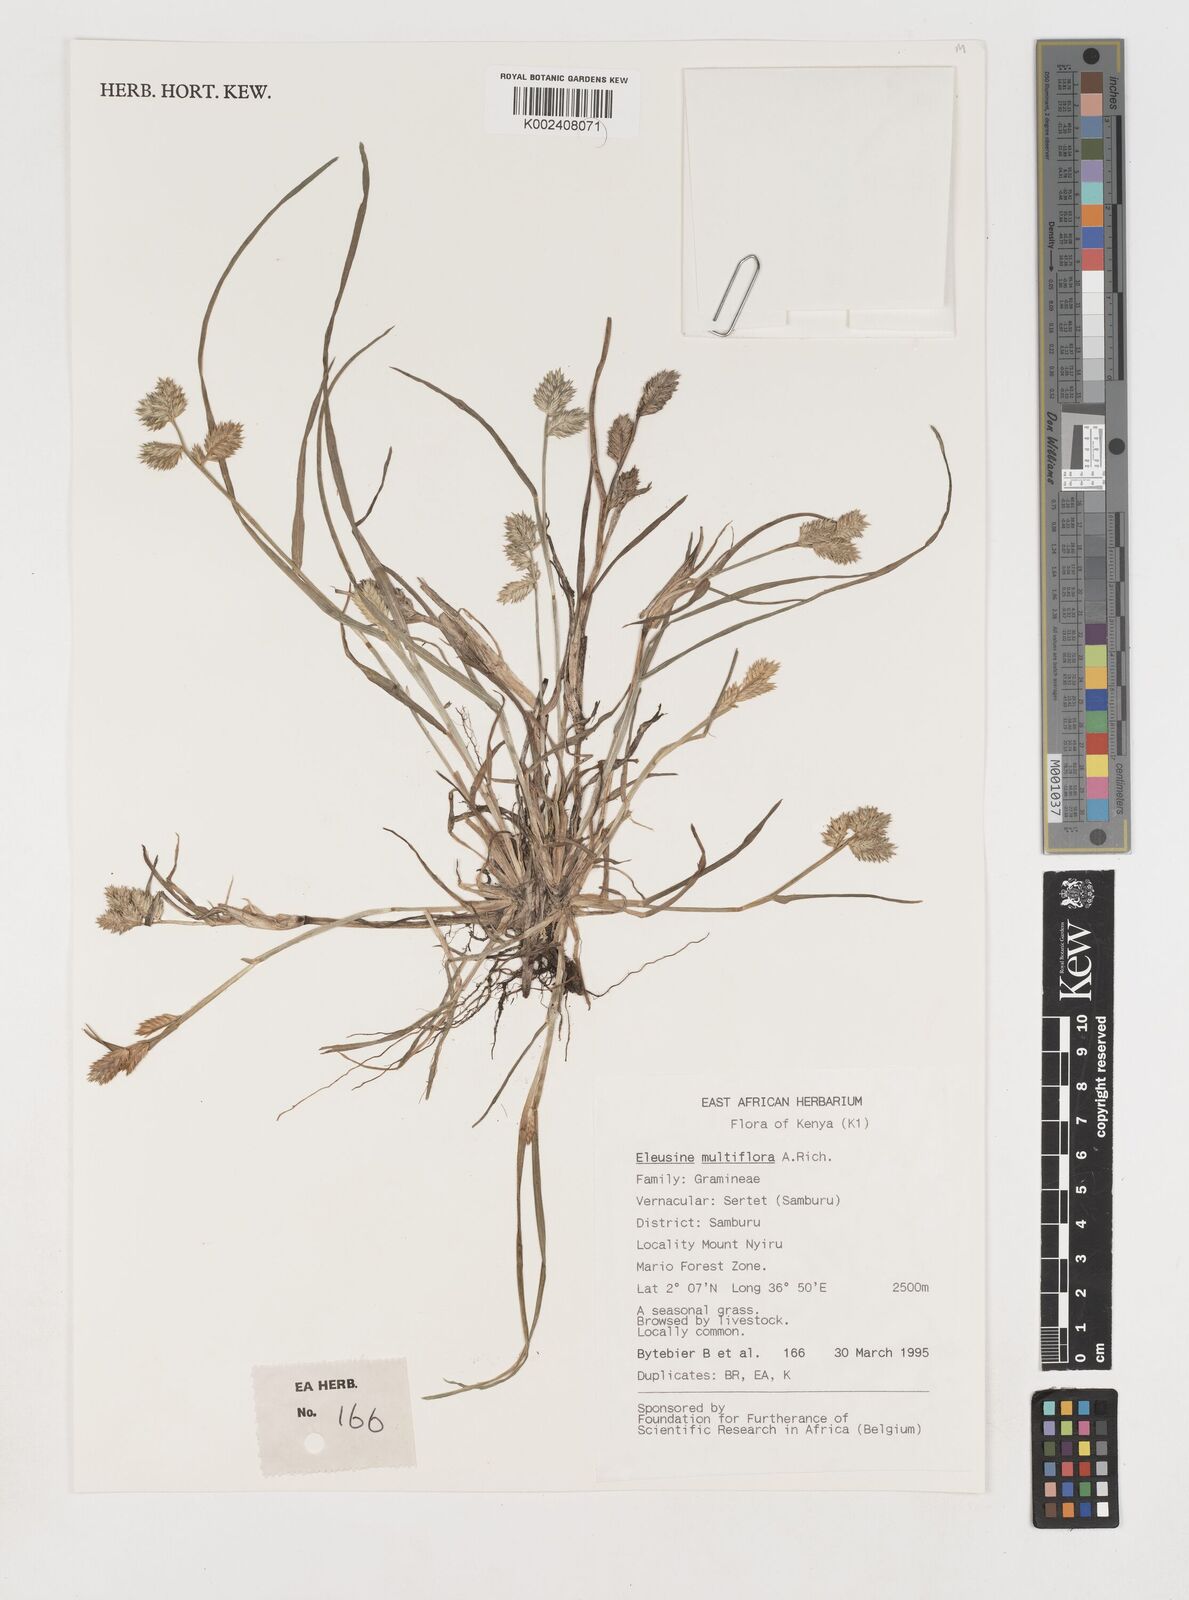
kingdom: Plantae
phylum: Tracheophyta
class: Liliopsida
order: Poales
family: Poaceae
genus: Eleusine
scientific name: Eleusine multiflora
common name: Fat-spiked yard-grass
